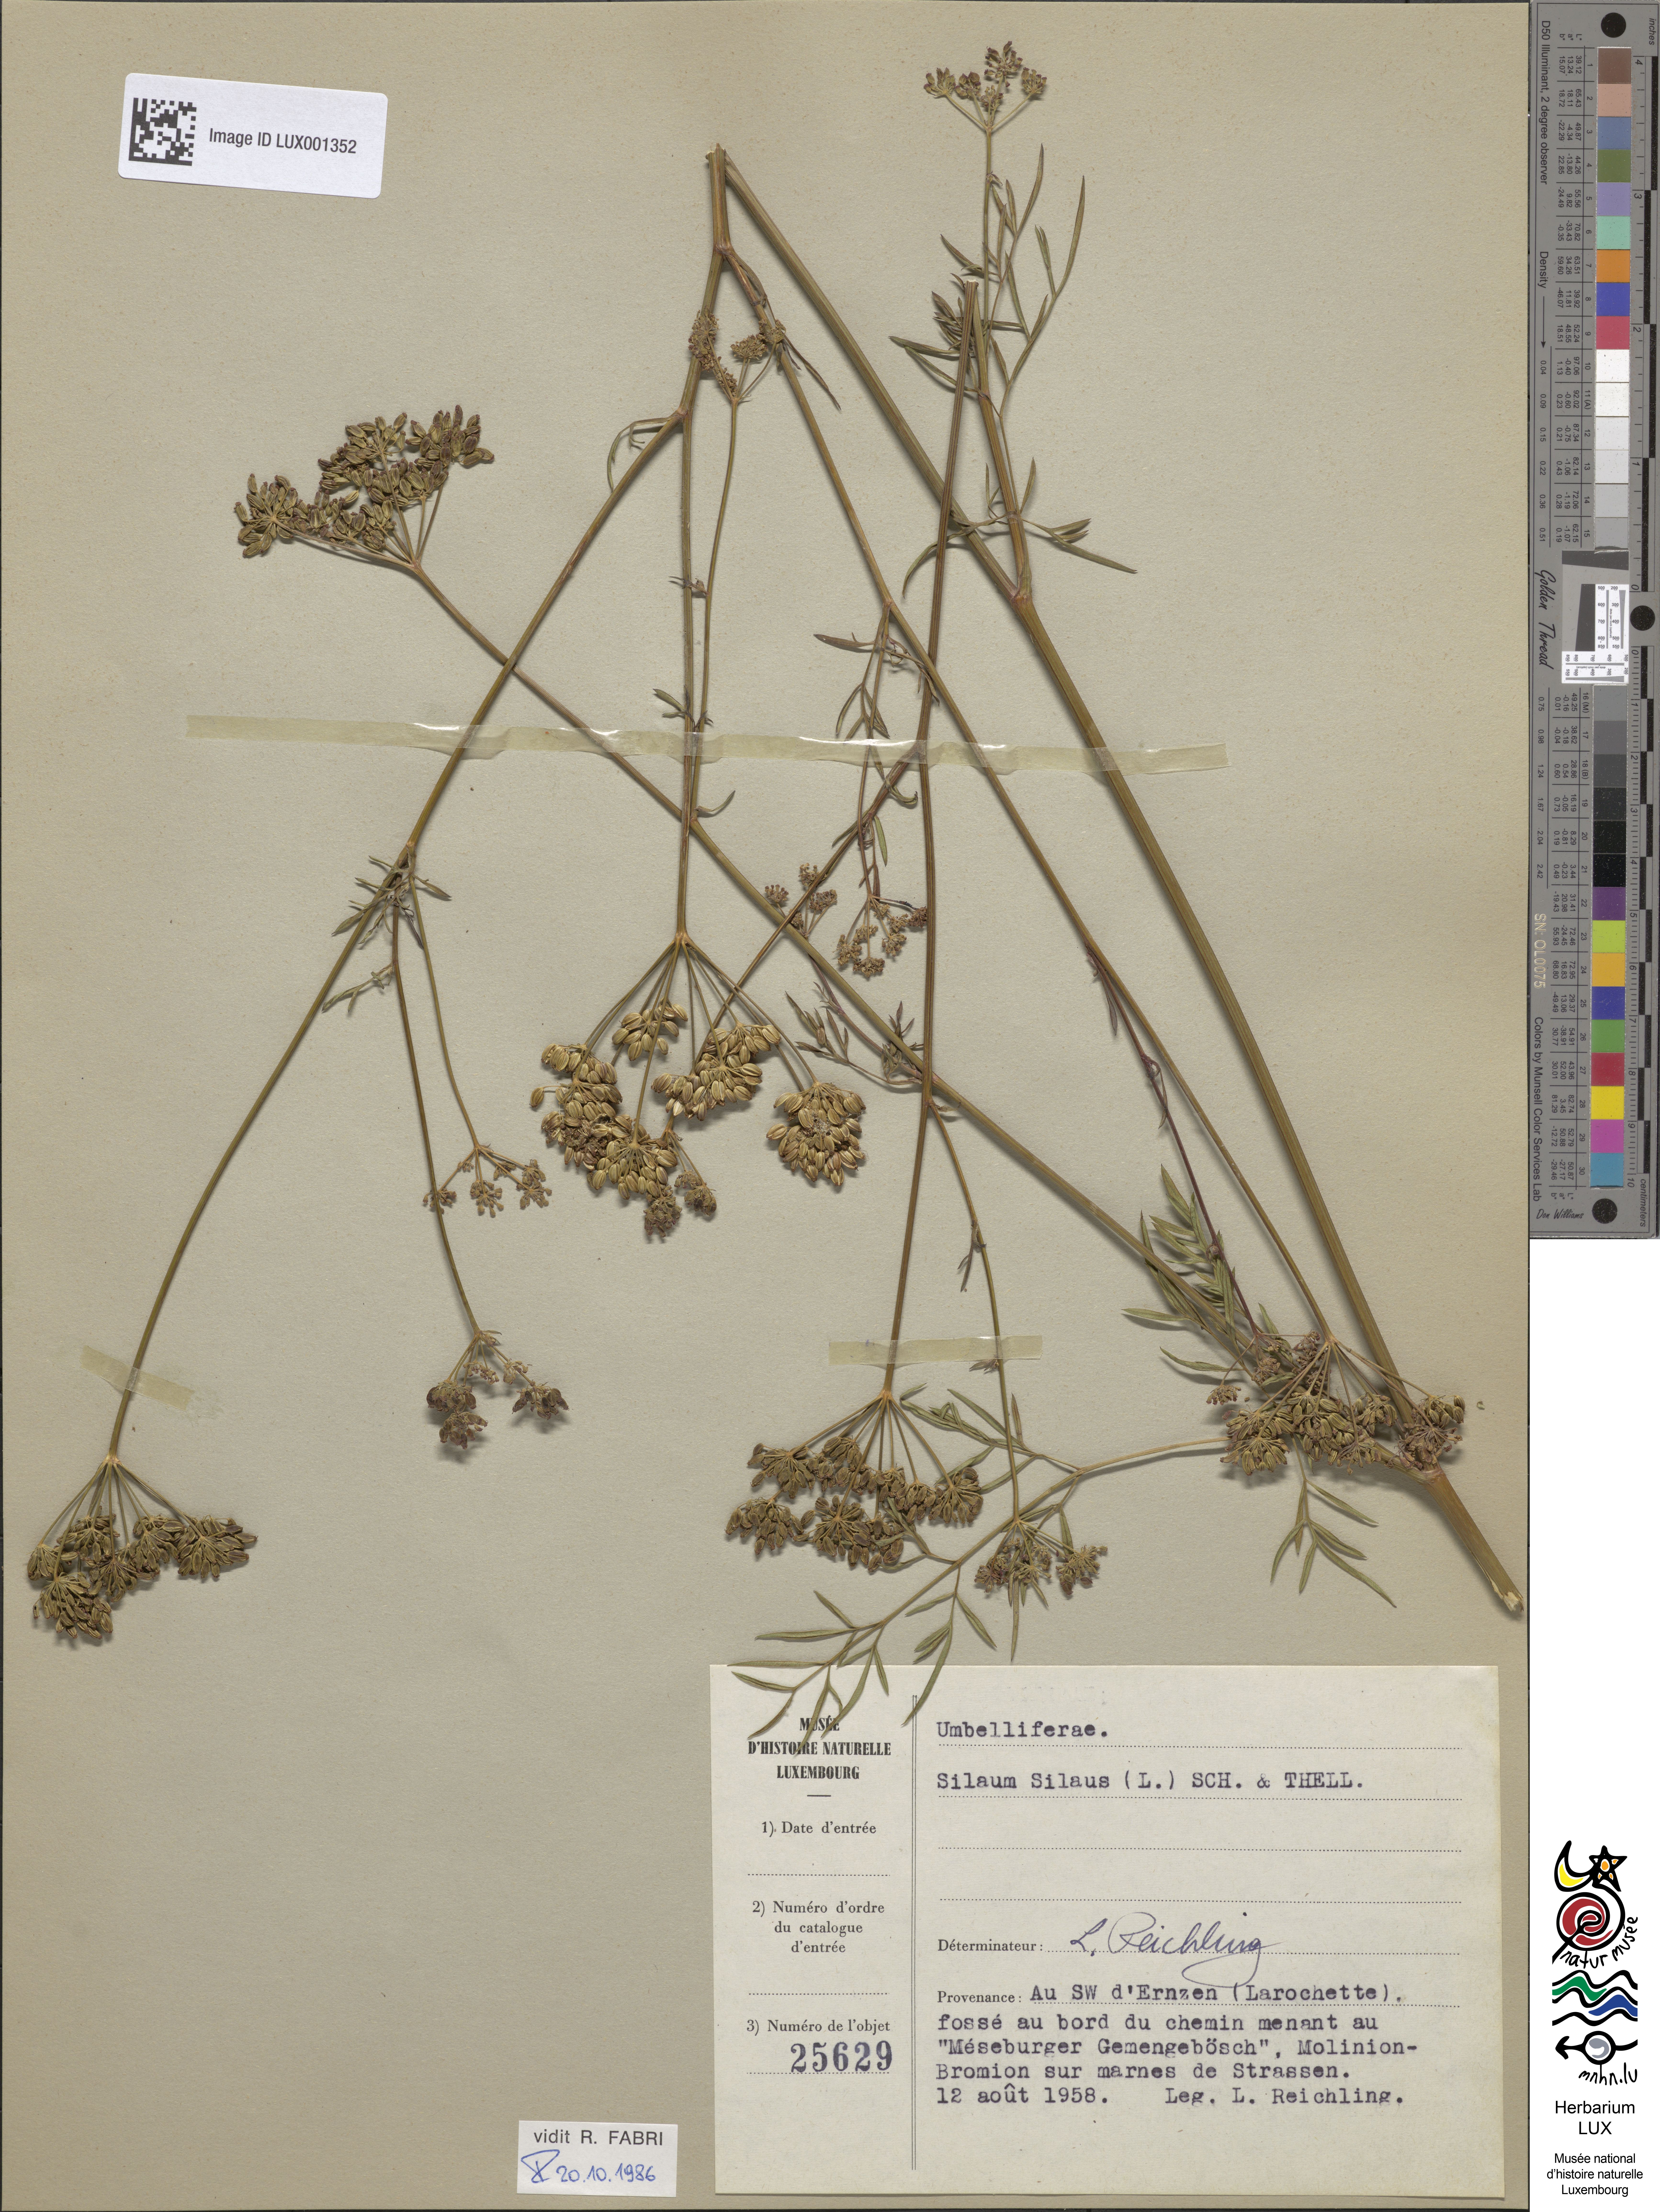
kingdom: Plantae
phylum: Tracheophyta
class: Magnoliopsida
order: Apiales
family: Apiaceae
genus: Silaum
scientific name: Silaum silaus
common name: Pepper-saxifrage
